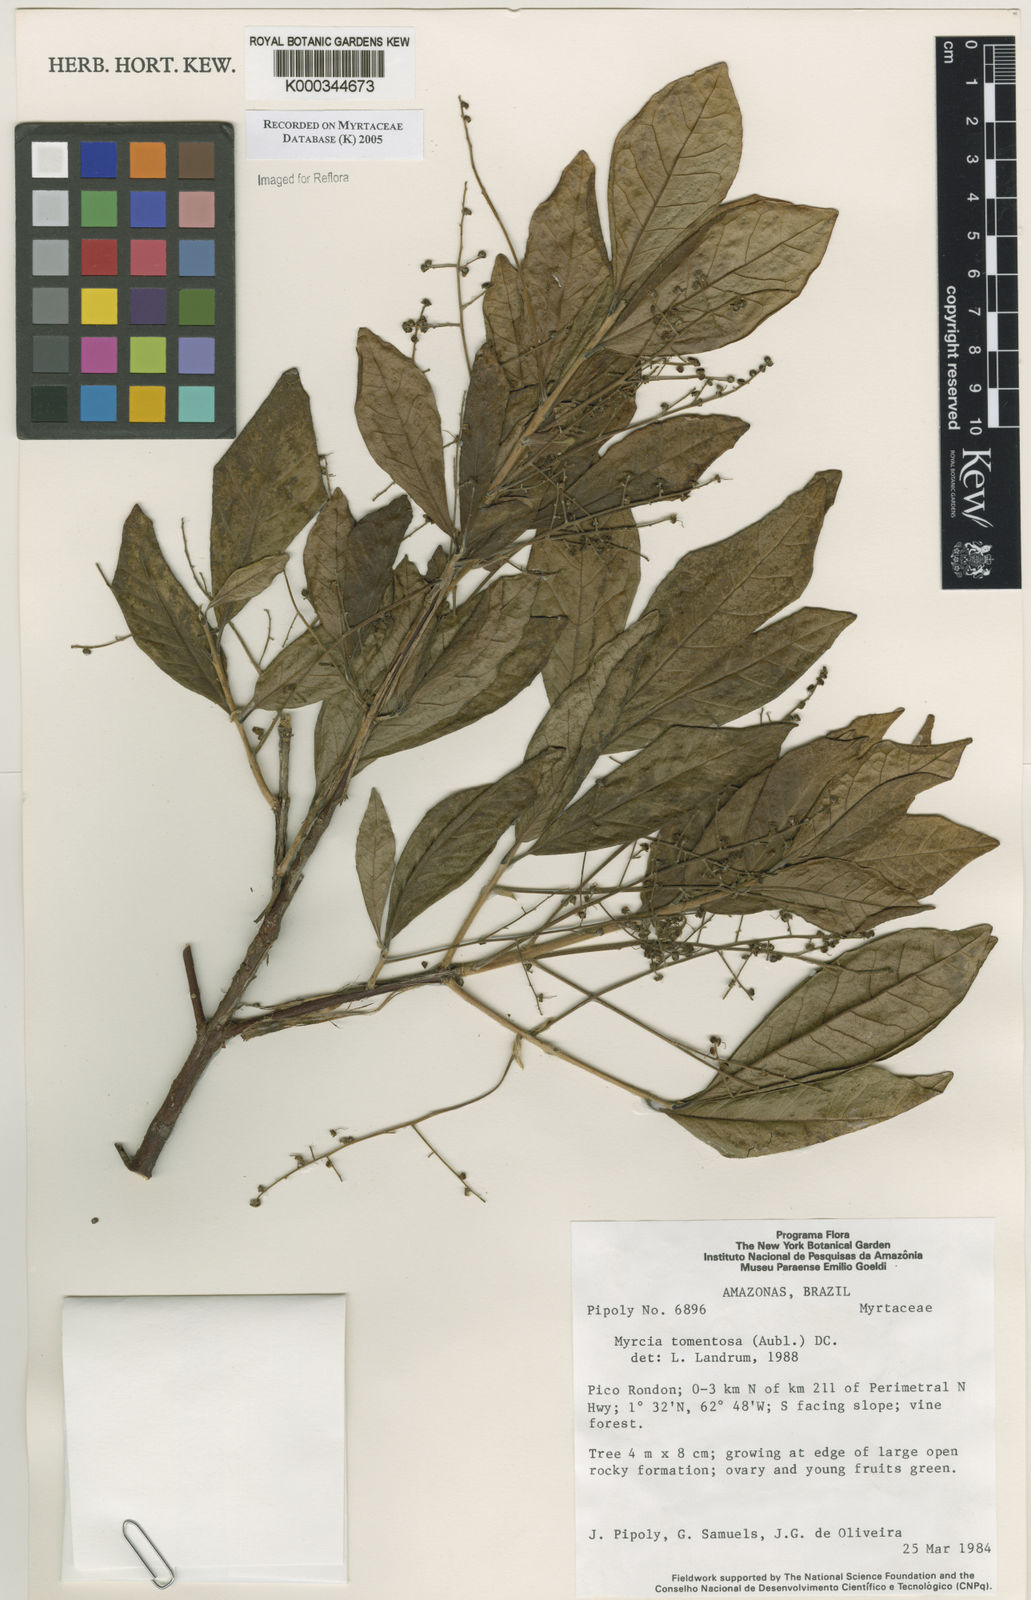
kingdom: Plantae
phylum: Tracheophyta
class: Magnoliopsida
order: Myrtales
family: Myrtaceae
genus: Myrcia
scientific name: Myrcia tomentosa
